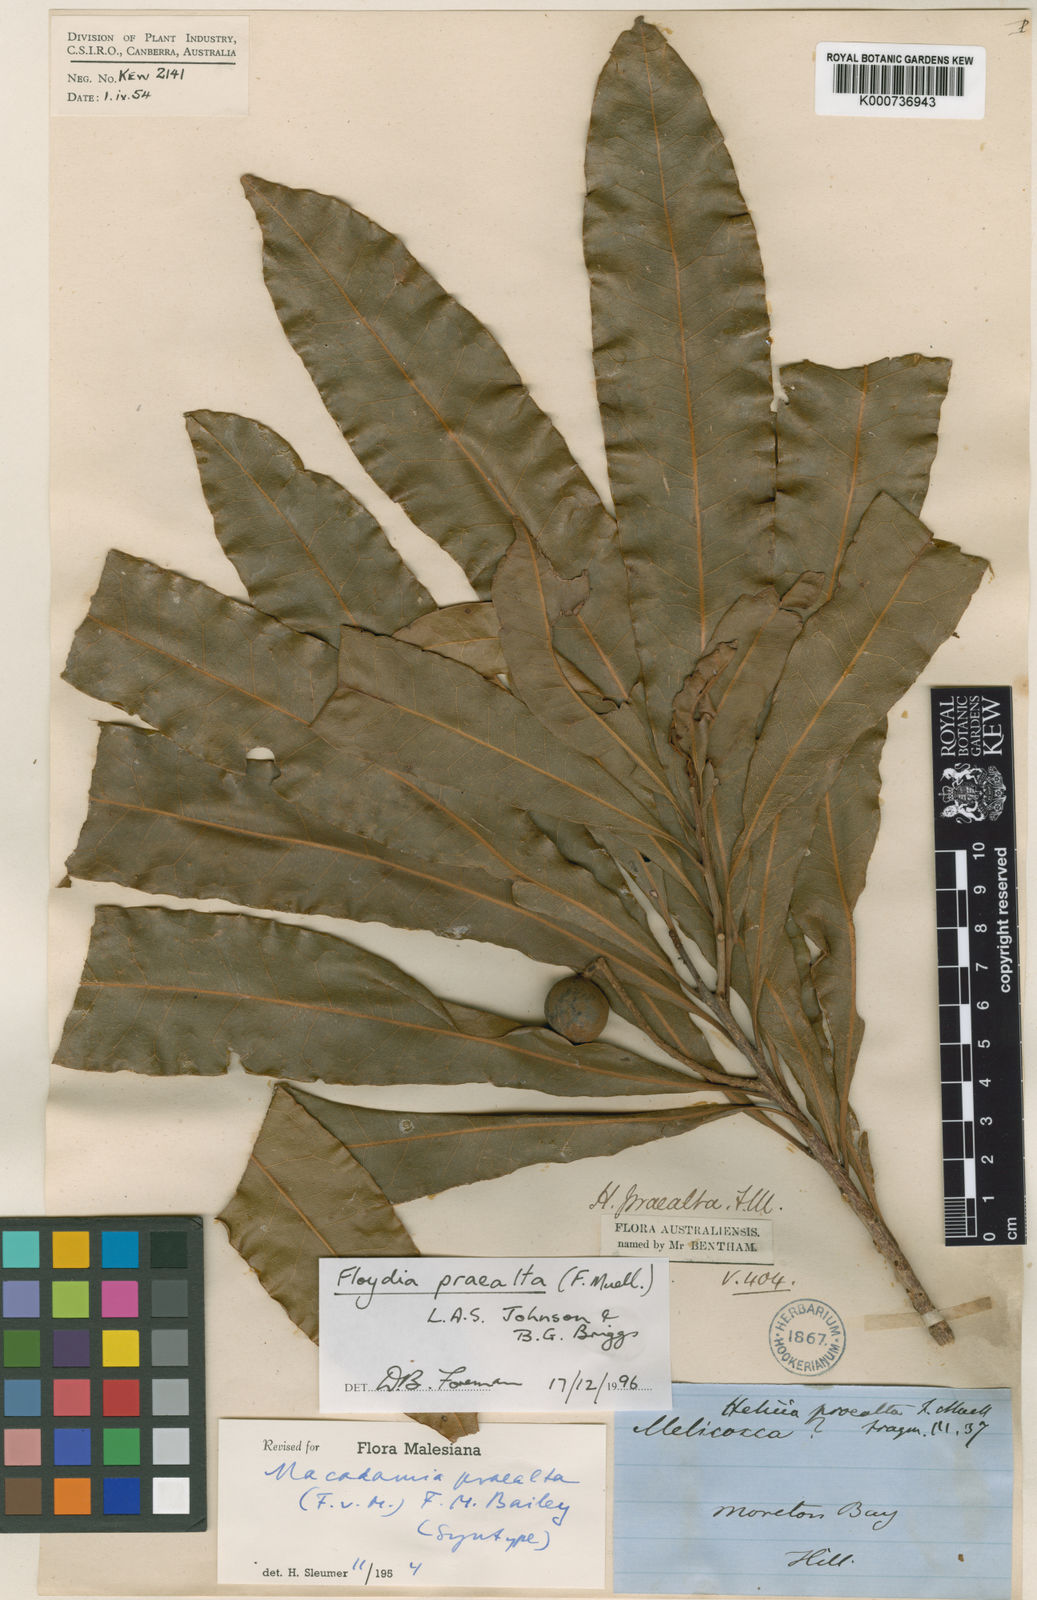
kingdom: Plantae
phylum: Tracheophyta
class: Magnoliopsida
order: Proteales
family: Proteaceae
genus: Floydia
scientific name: Floydia praealta
